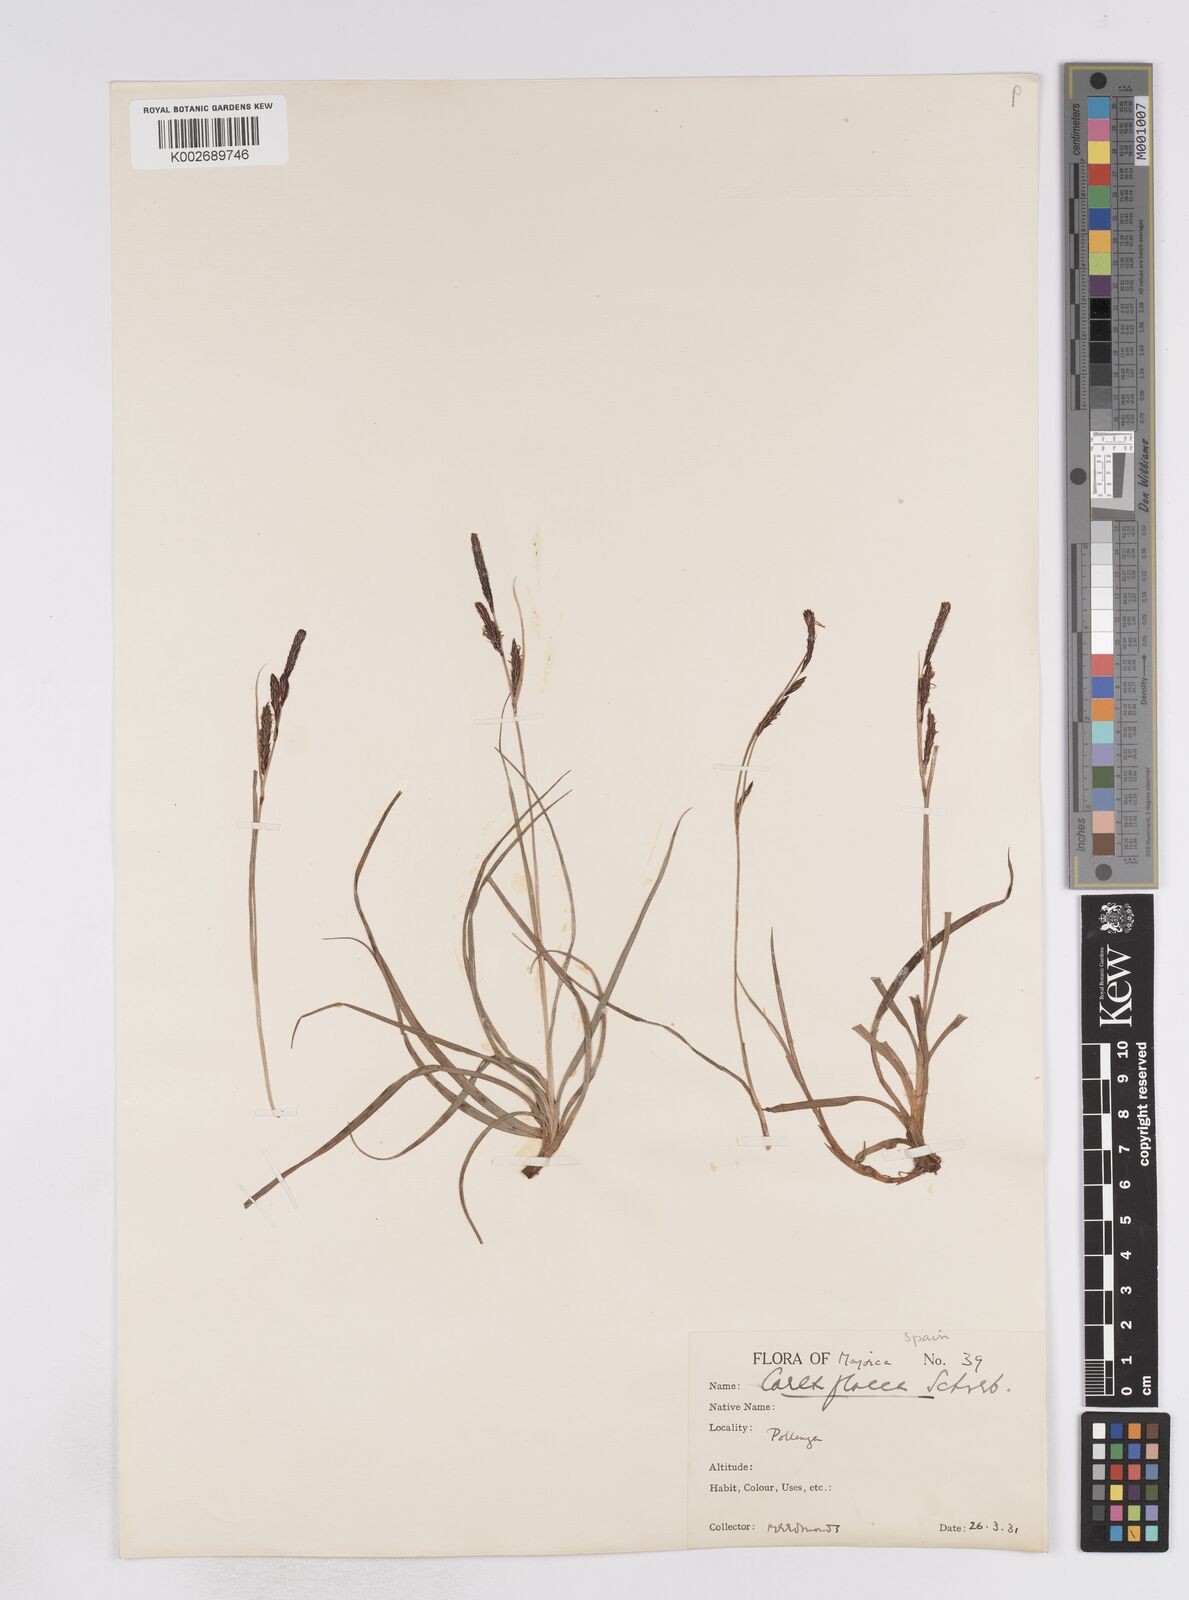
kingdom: Plantae
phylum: Tracheophyta
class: Liliopsida
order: Poales
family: Cyperaceae
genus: Carex
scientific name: Carex flacca
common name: Glaucous sedge
